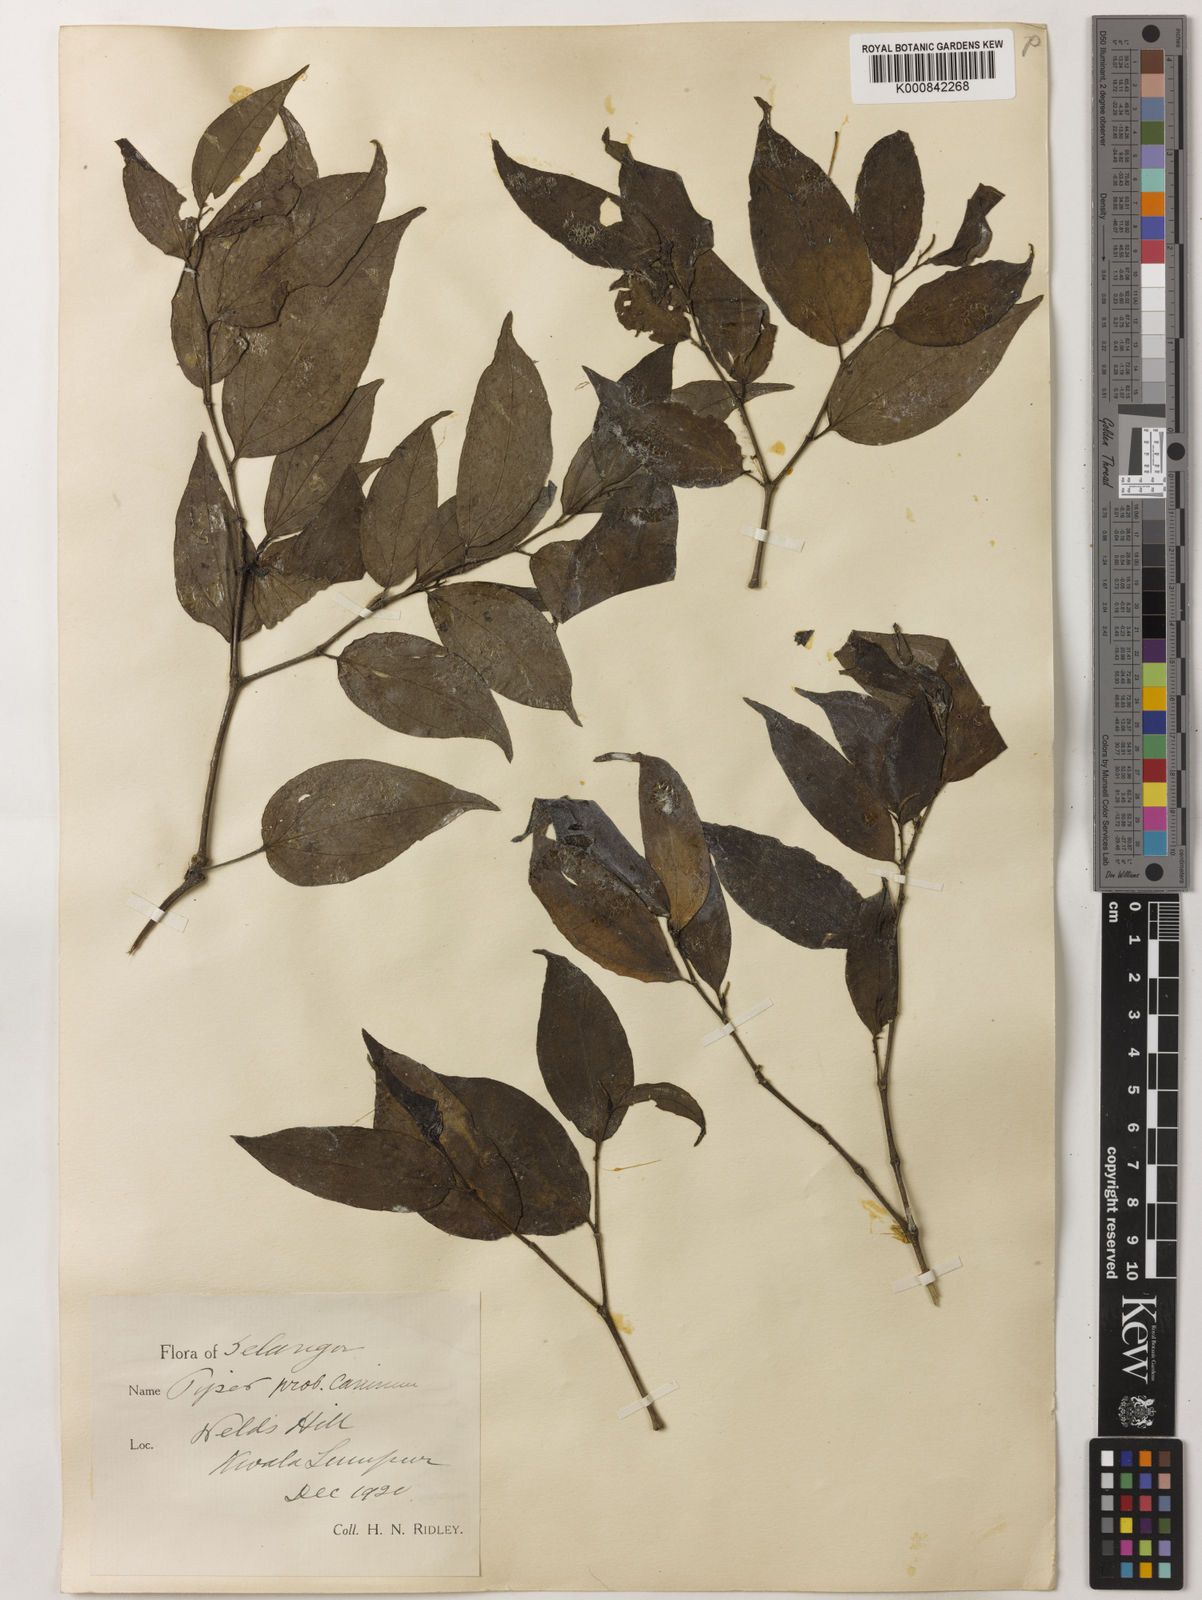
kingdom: Plantae
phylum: Tracheophyta
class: Magnoliopsida
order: Piperales
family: Piperaceae
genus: Piper
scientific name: Piper lanatum
